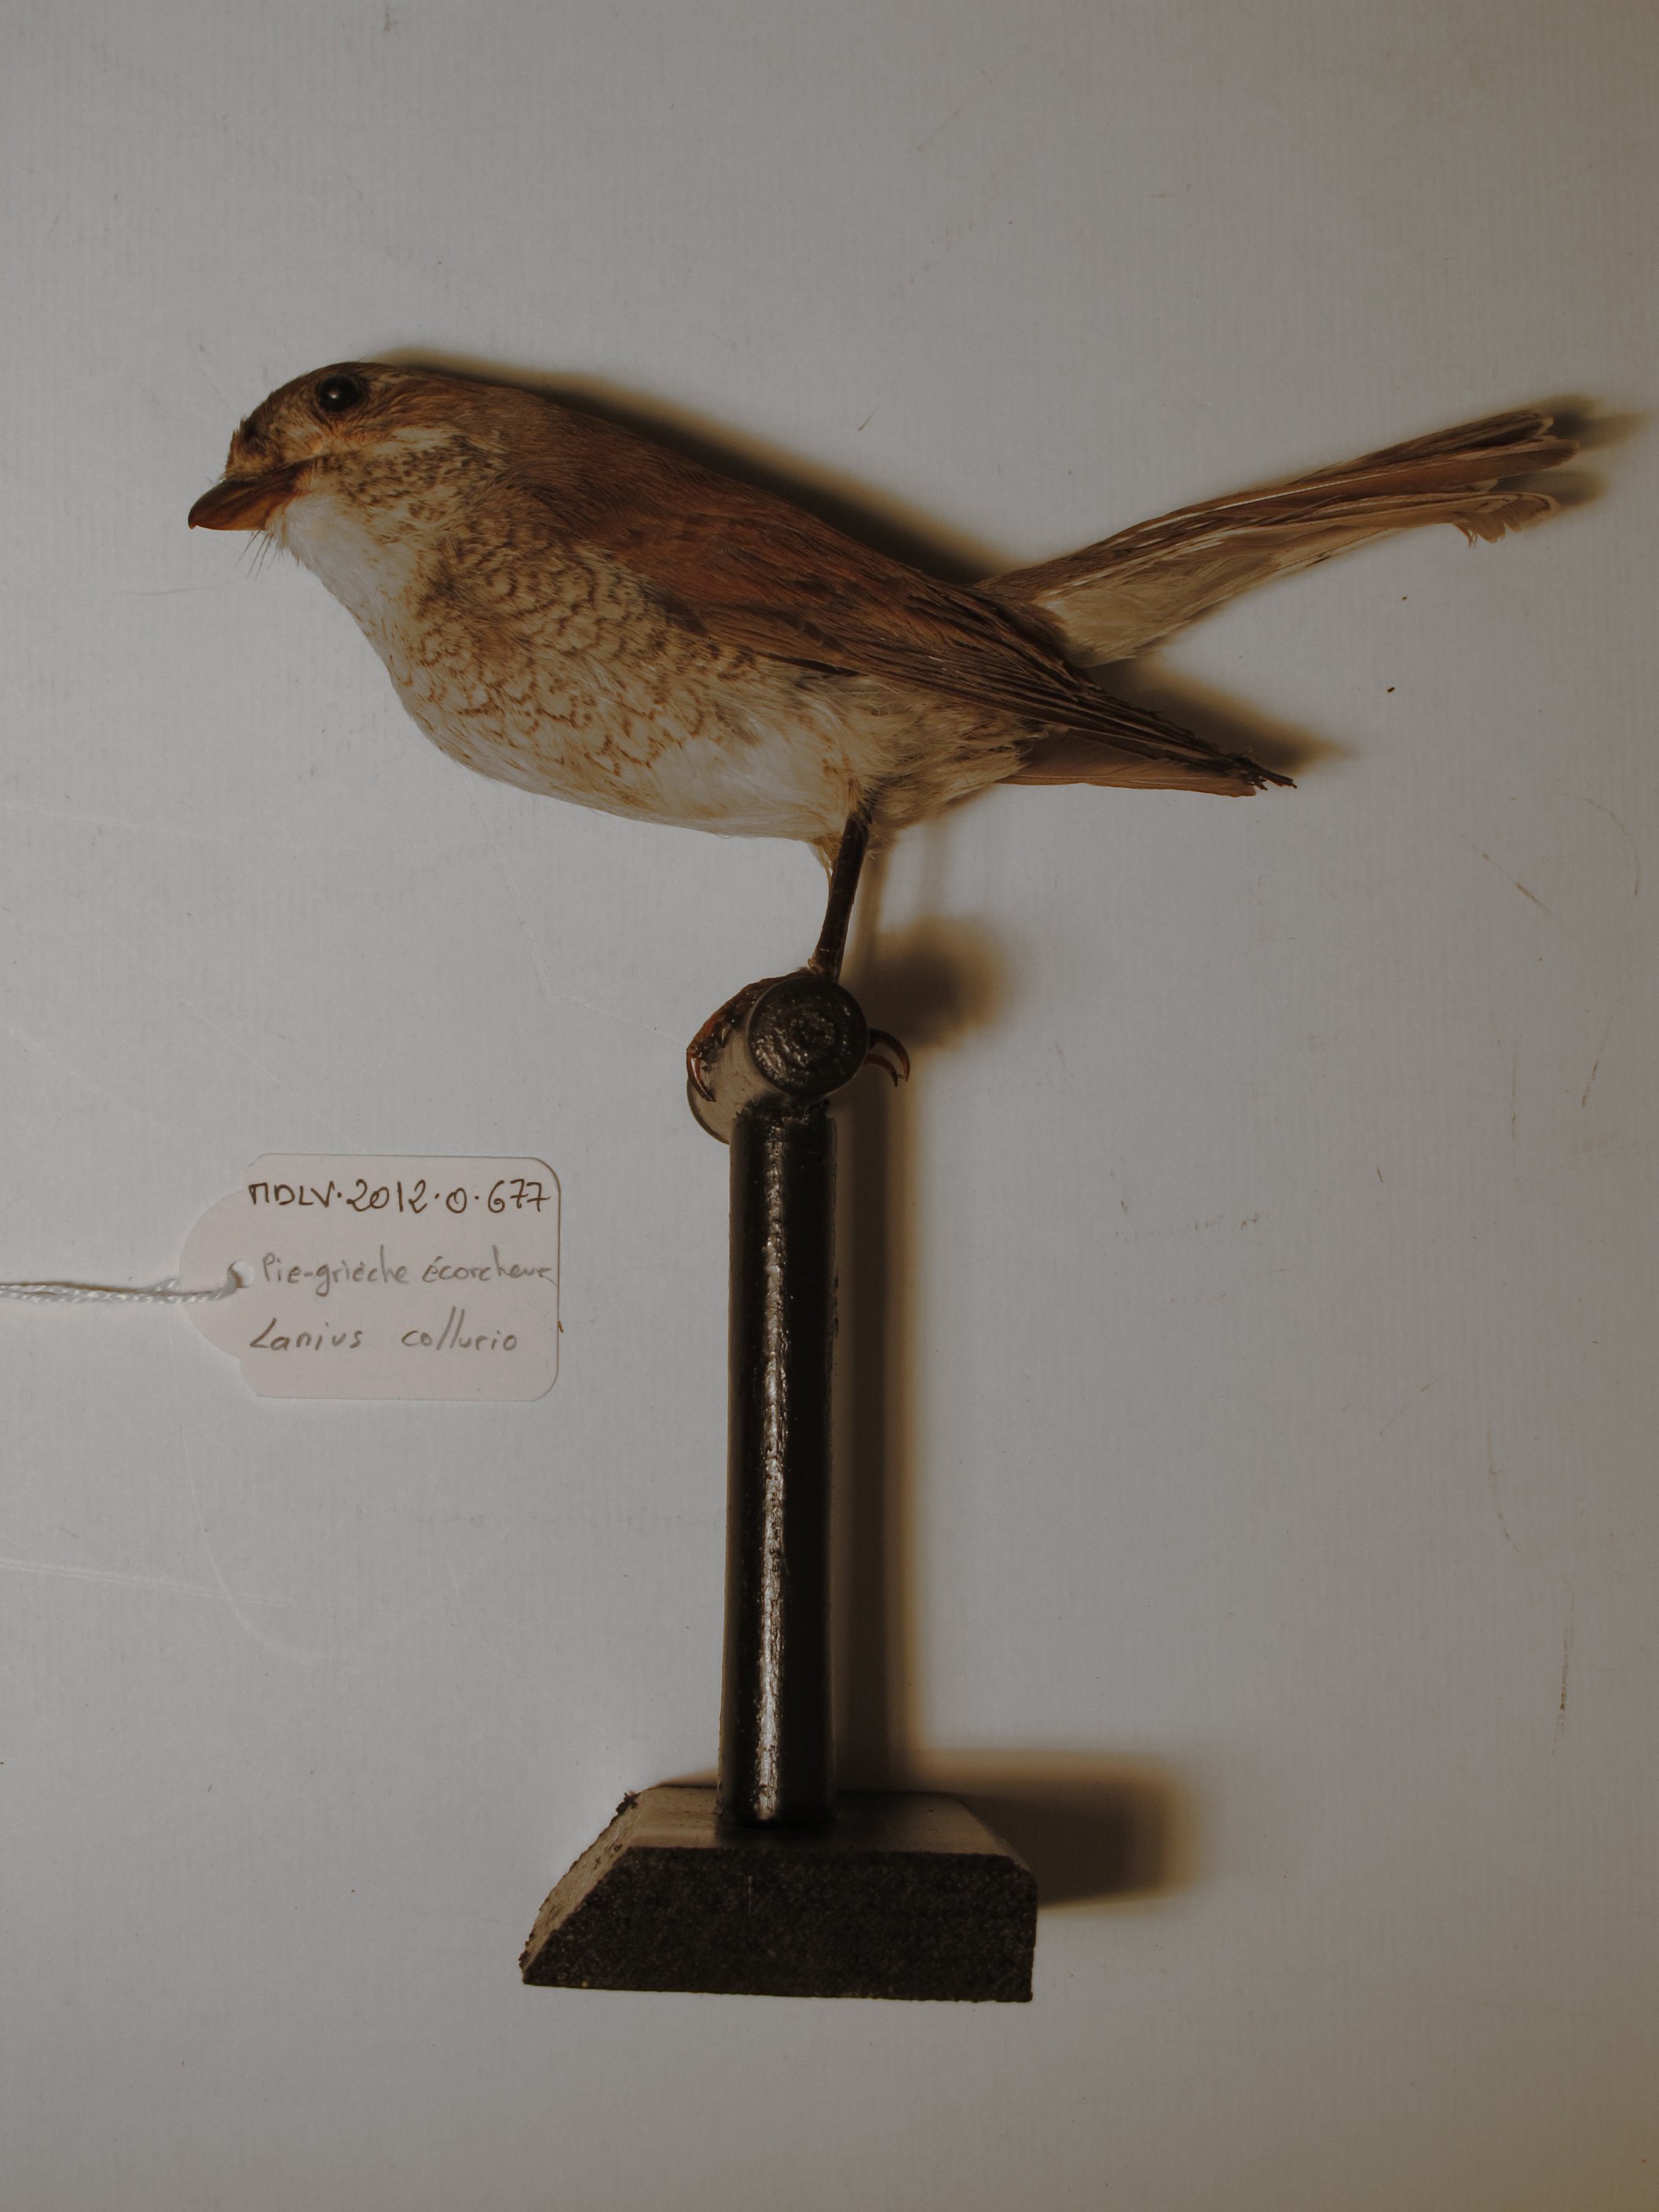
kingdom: Animalia
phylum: Chordata
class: Aves
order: Passeriformes
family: Laniidae
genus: Lanius
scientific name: Lanius collurio
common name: Red-backed Shrike
